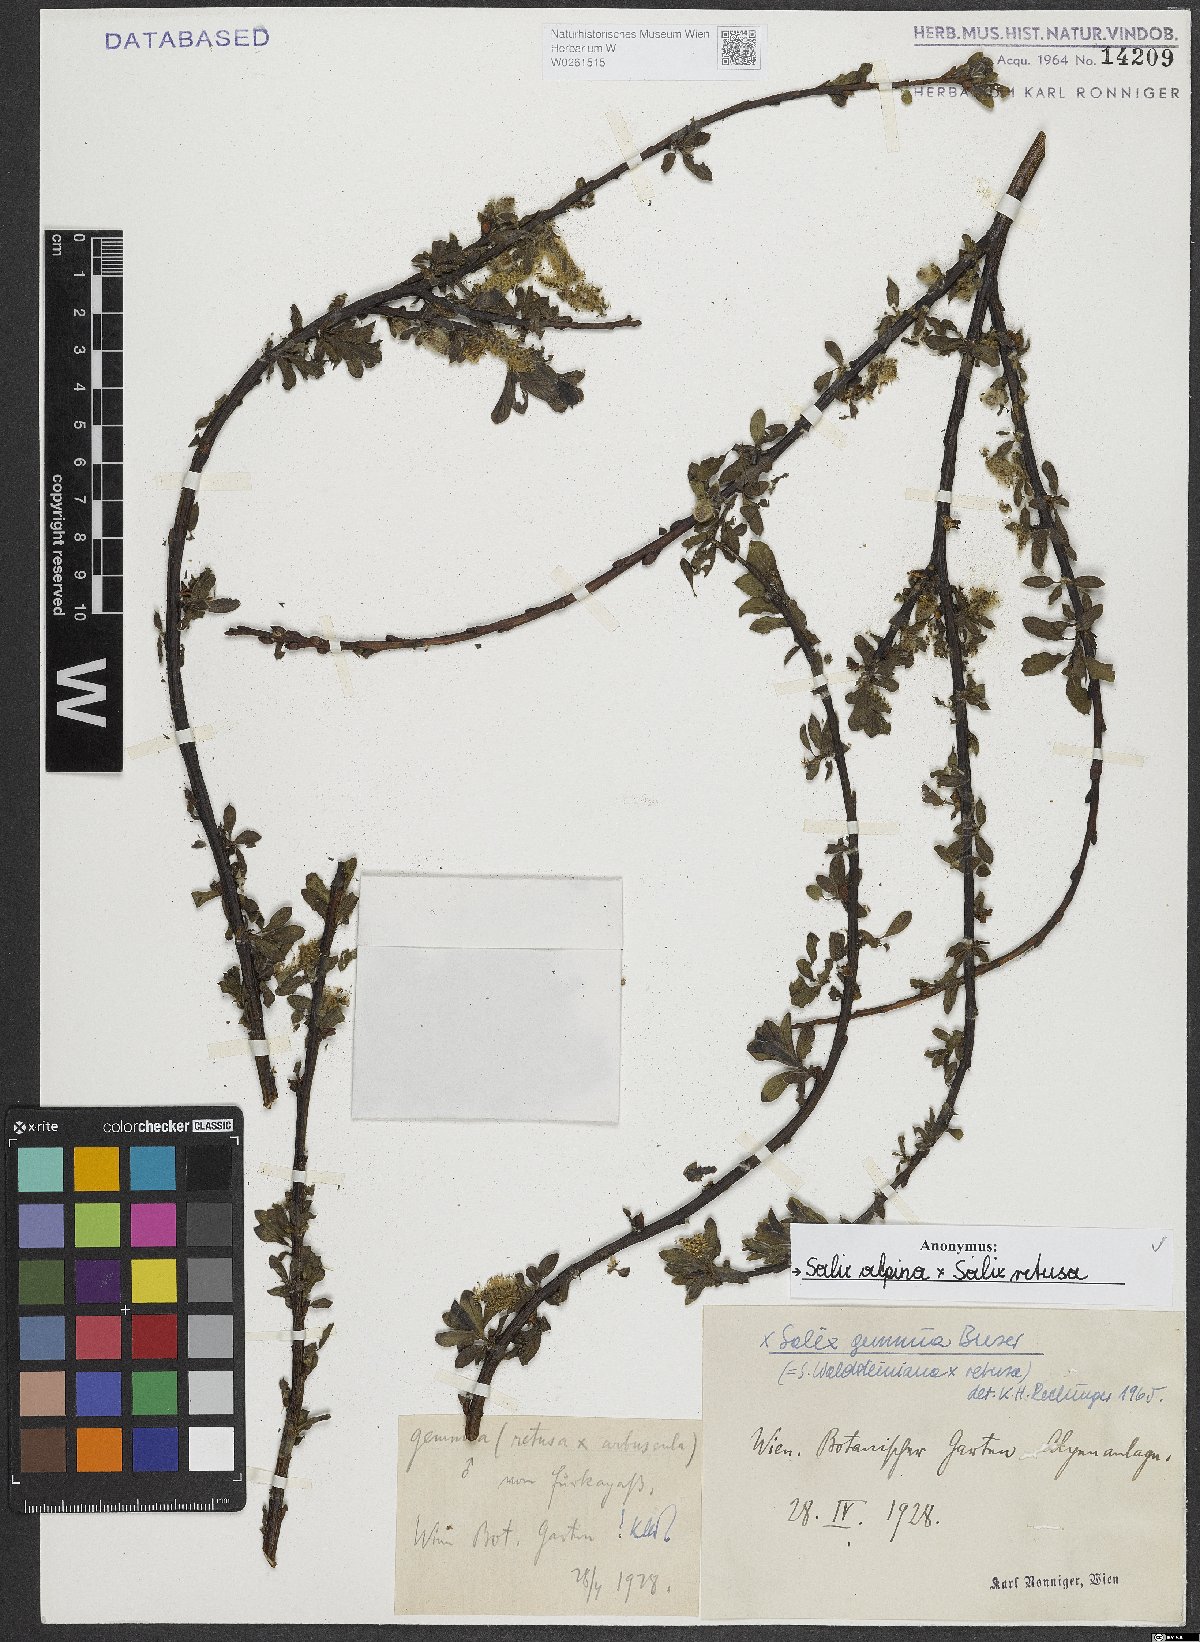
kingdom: Plantae
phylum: Tracheophyta
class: Magnoliopsida
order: Malpighiales
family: Salicaceae
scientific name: Salicaceae
